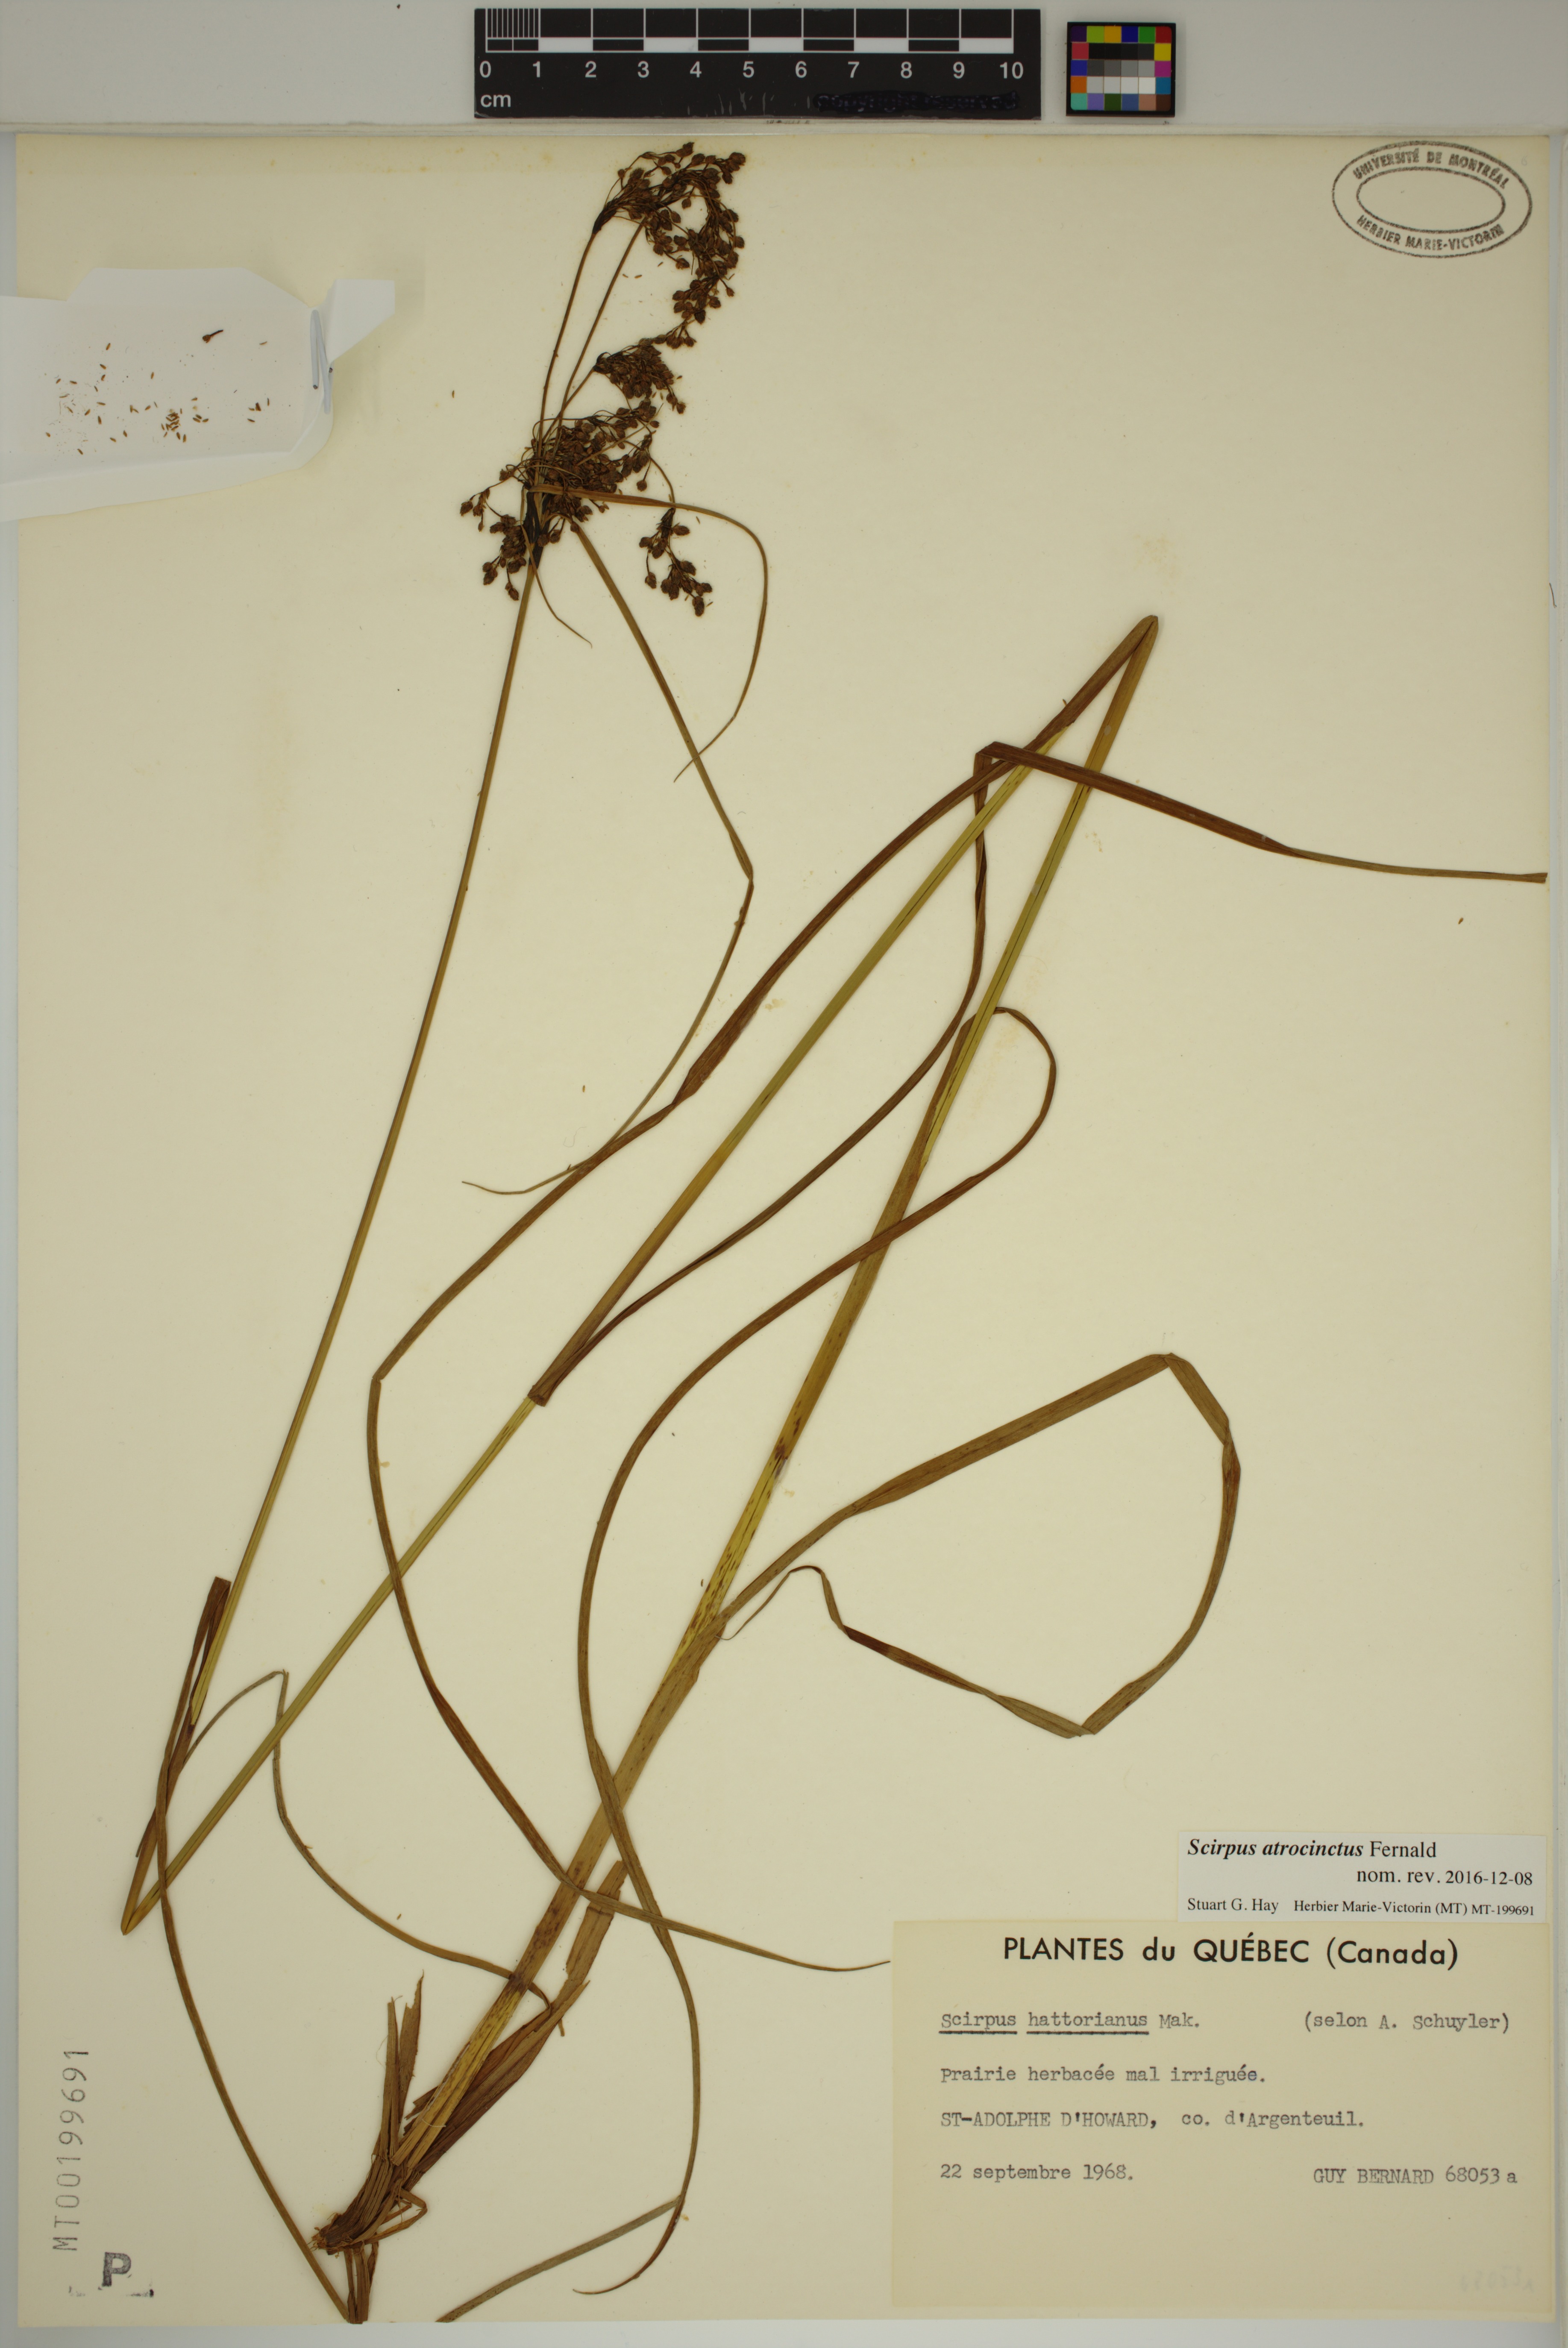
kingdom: Plantae
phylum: Tracheophyta
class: Liliopsida
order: Poales
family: Cyperaceae
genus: Scirpus
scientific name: Scirpus atrocinctus
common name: Black-girdled bulrush
